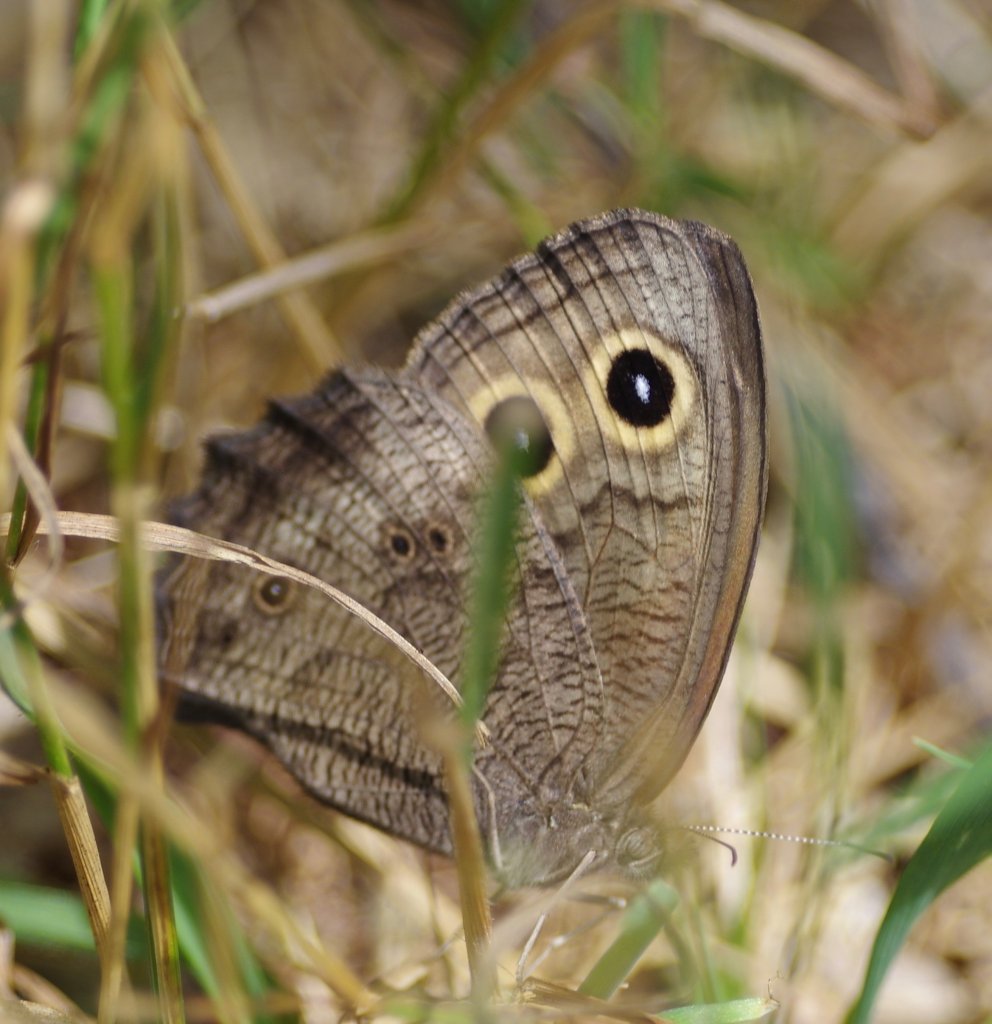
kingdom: Animalia
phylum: Arthropoda
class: Insecta
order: Lepidoptera
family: Nymphalidae
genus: Cercyonis
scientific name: Cercyonis pegala
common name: Common Wood-Nymph
